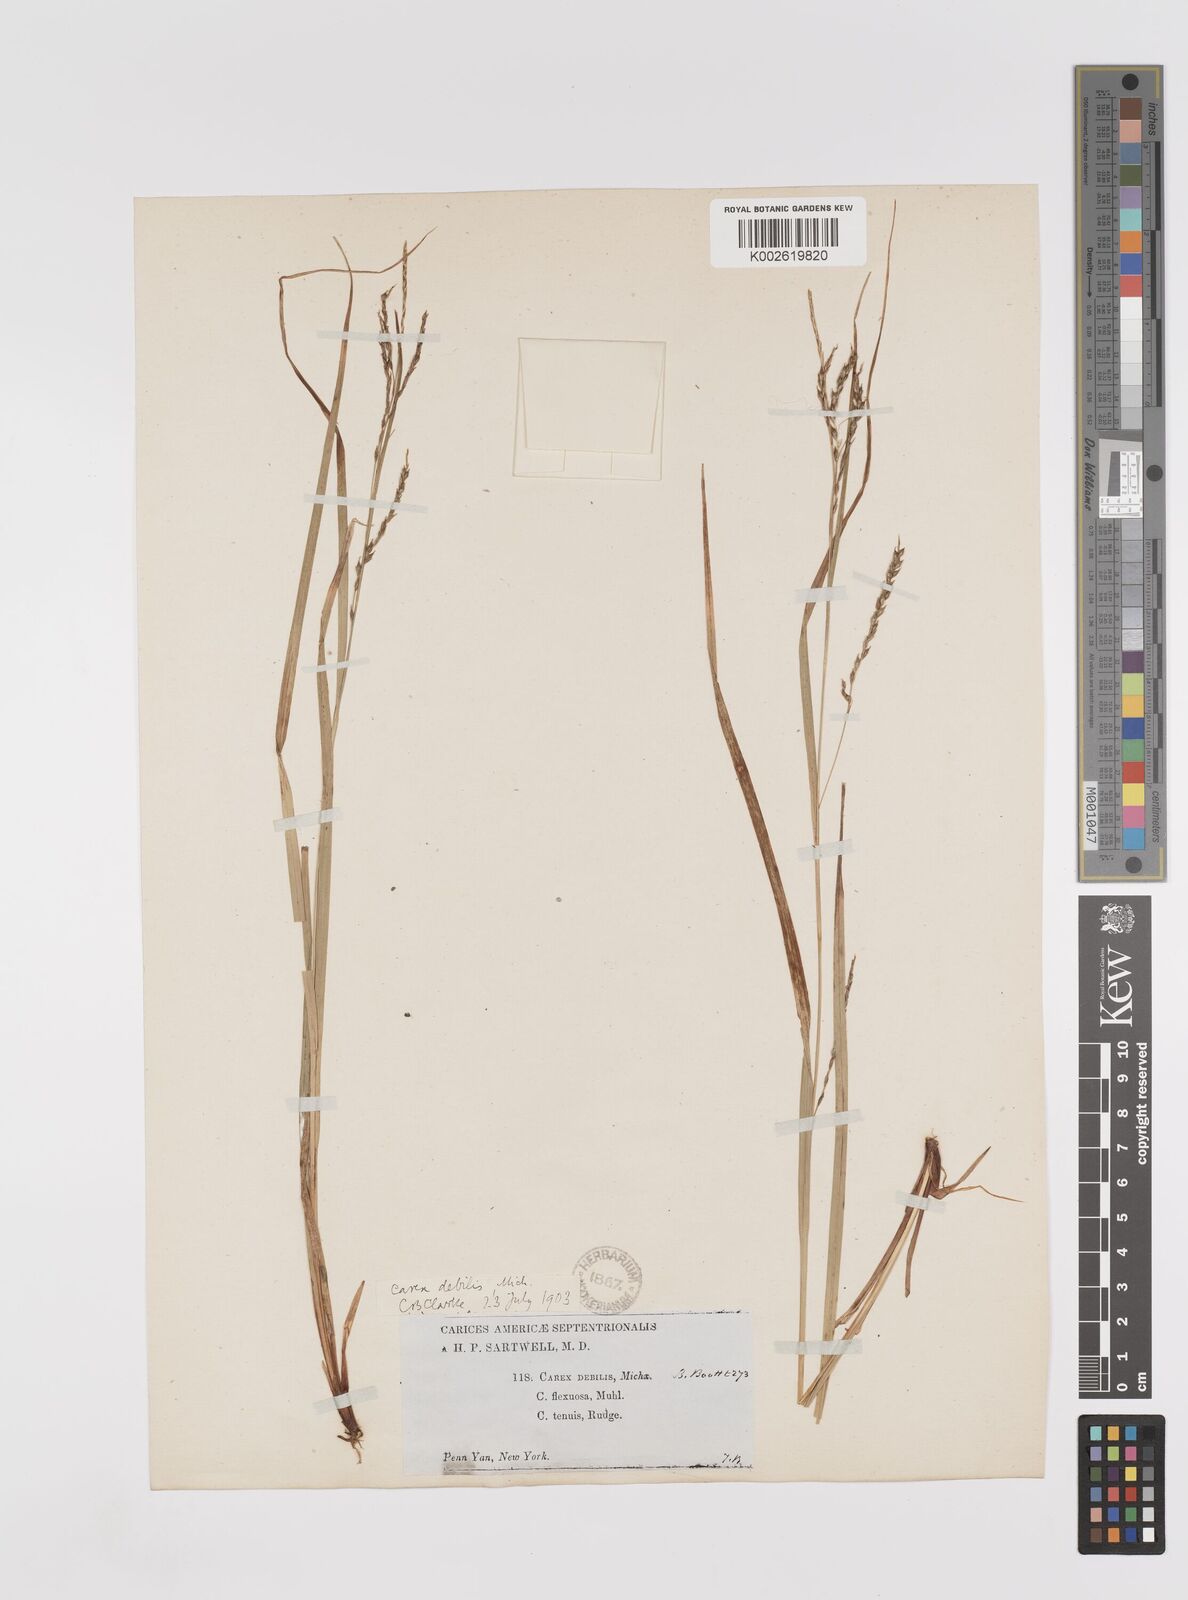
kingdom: Plantae
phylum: Tracheophyta
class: Liliopsida
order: Poales
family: Cyperaceae
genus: Carex
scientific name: Carex debilis
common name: White-edge sedge
